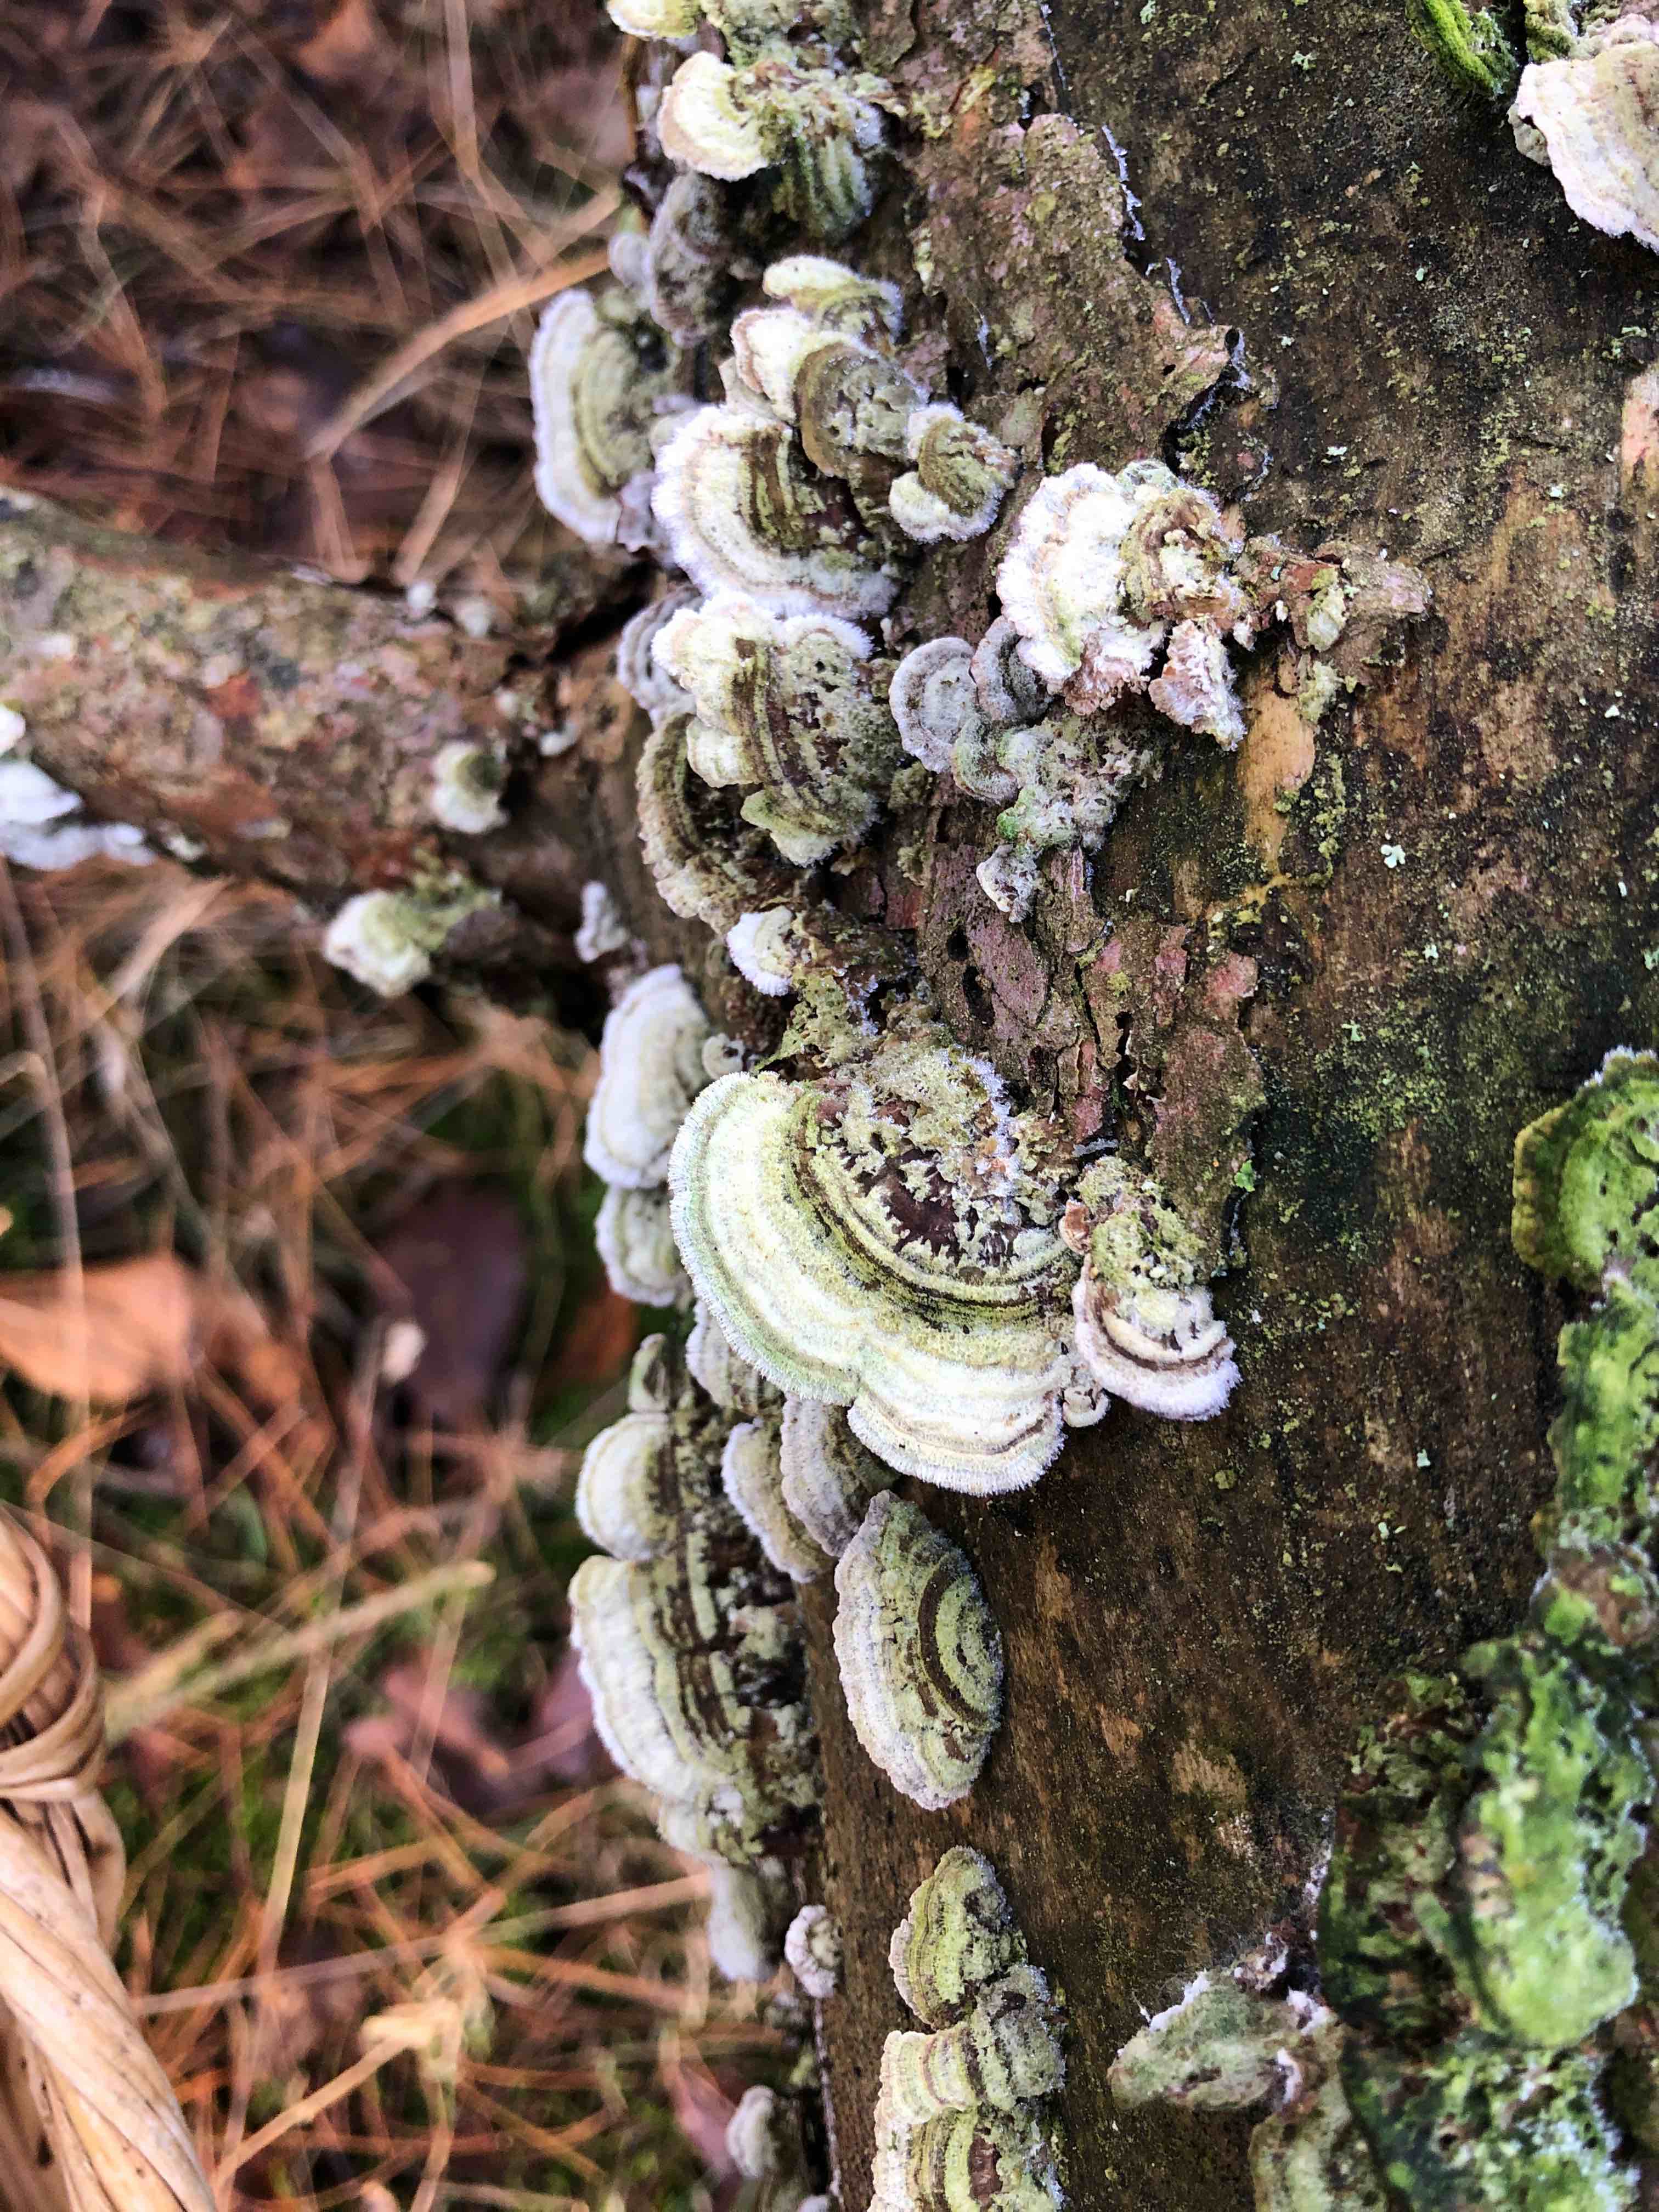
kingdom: Fungi
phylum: Basidiomycota
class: Agaricomycetes
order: Hymenochaetales
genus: Trichaptum
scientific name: Trichaptum fuscoviolaceum
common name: tandet violporesvamp
